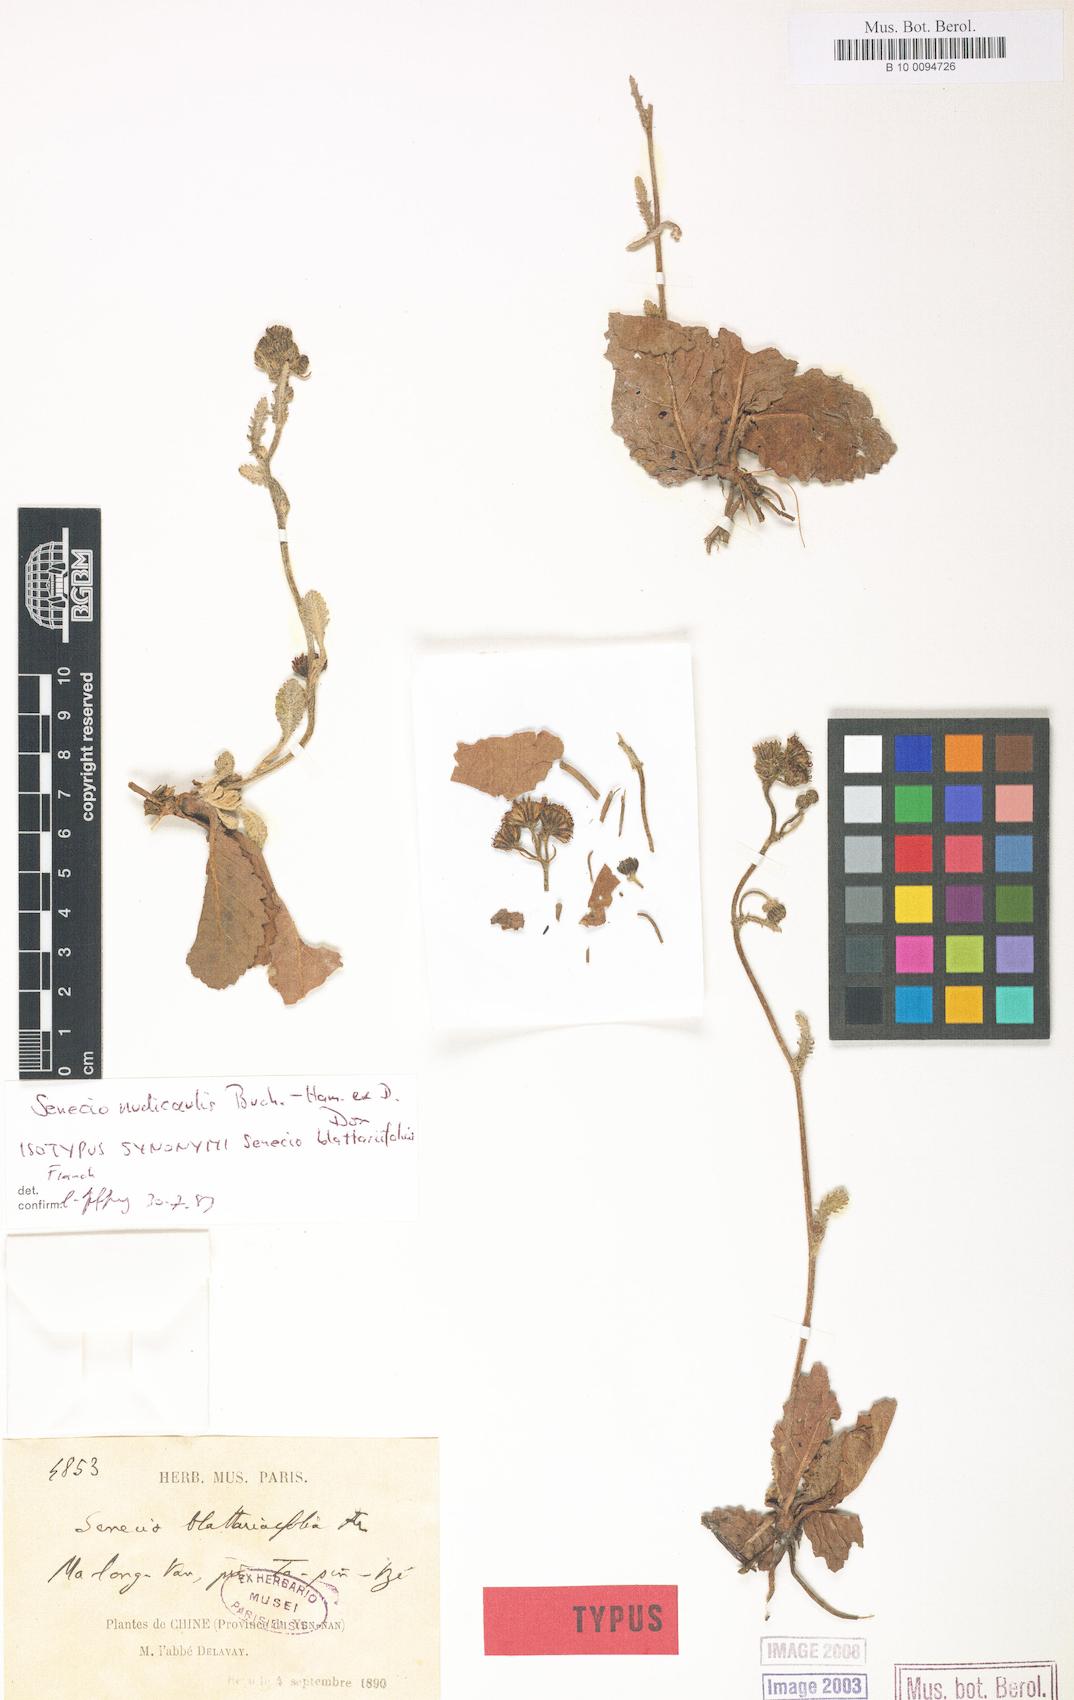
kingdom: Plantae
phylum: Tracheophyta
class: Magnoliopsida
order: Asterales
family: Asteraceae
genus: Jacobaea
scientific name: Jacobaea nudicaulis
